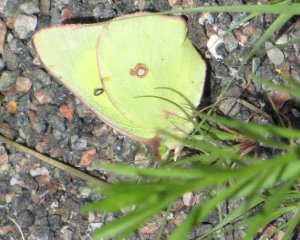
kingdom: Animalia
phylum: Arthropoda
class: Insecta
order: Lepidoptera
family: Pieridae
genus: Colias
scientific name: Colias philodice
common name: Clouded Sulphur
